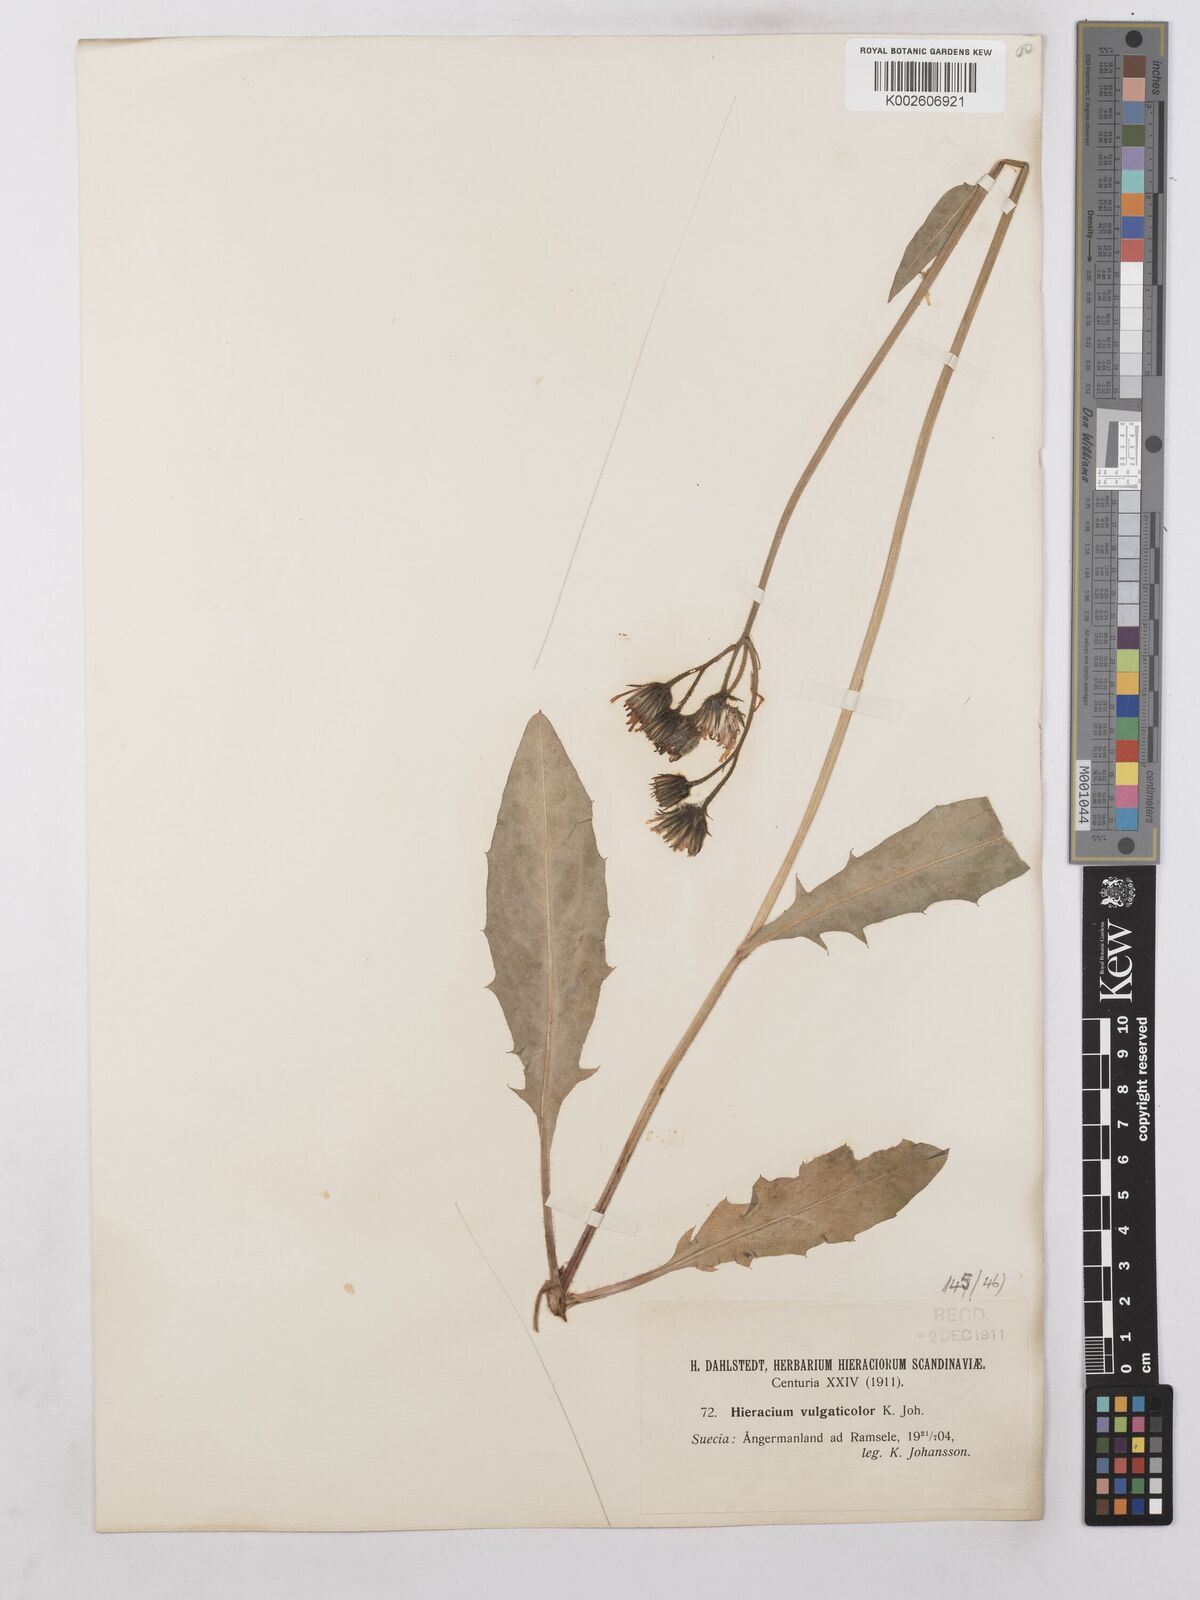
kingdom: Plantae
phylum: Tracheophyta
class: Magnoliopsida
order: Asterales
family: Asteraceae
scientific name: Asteraceae
